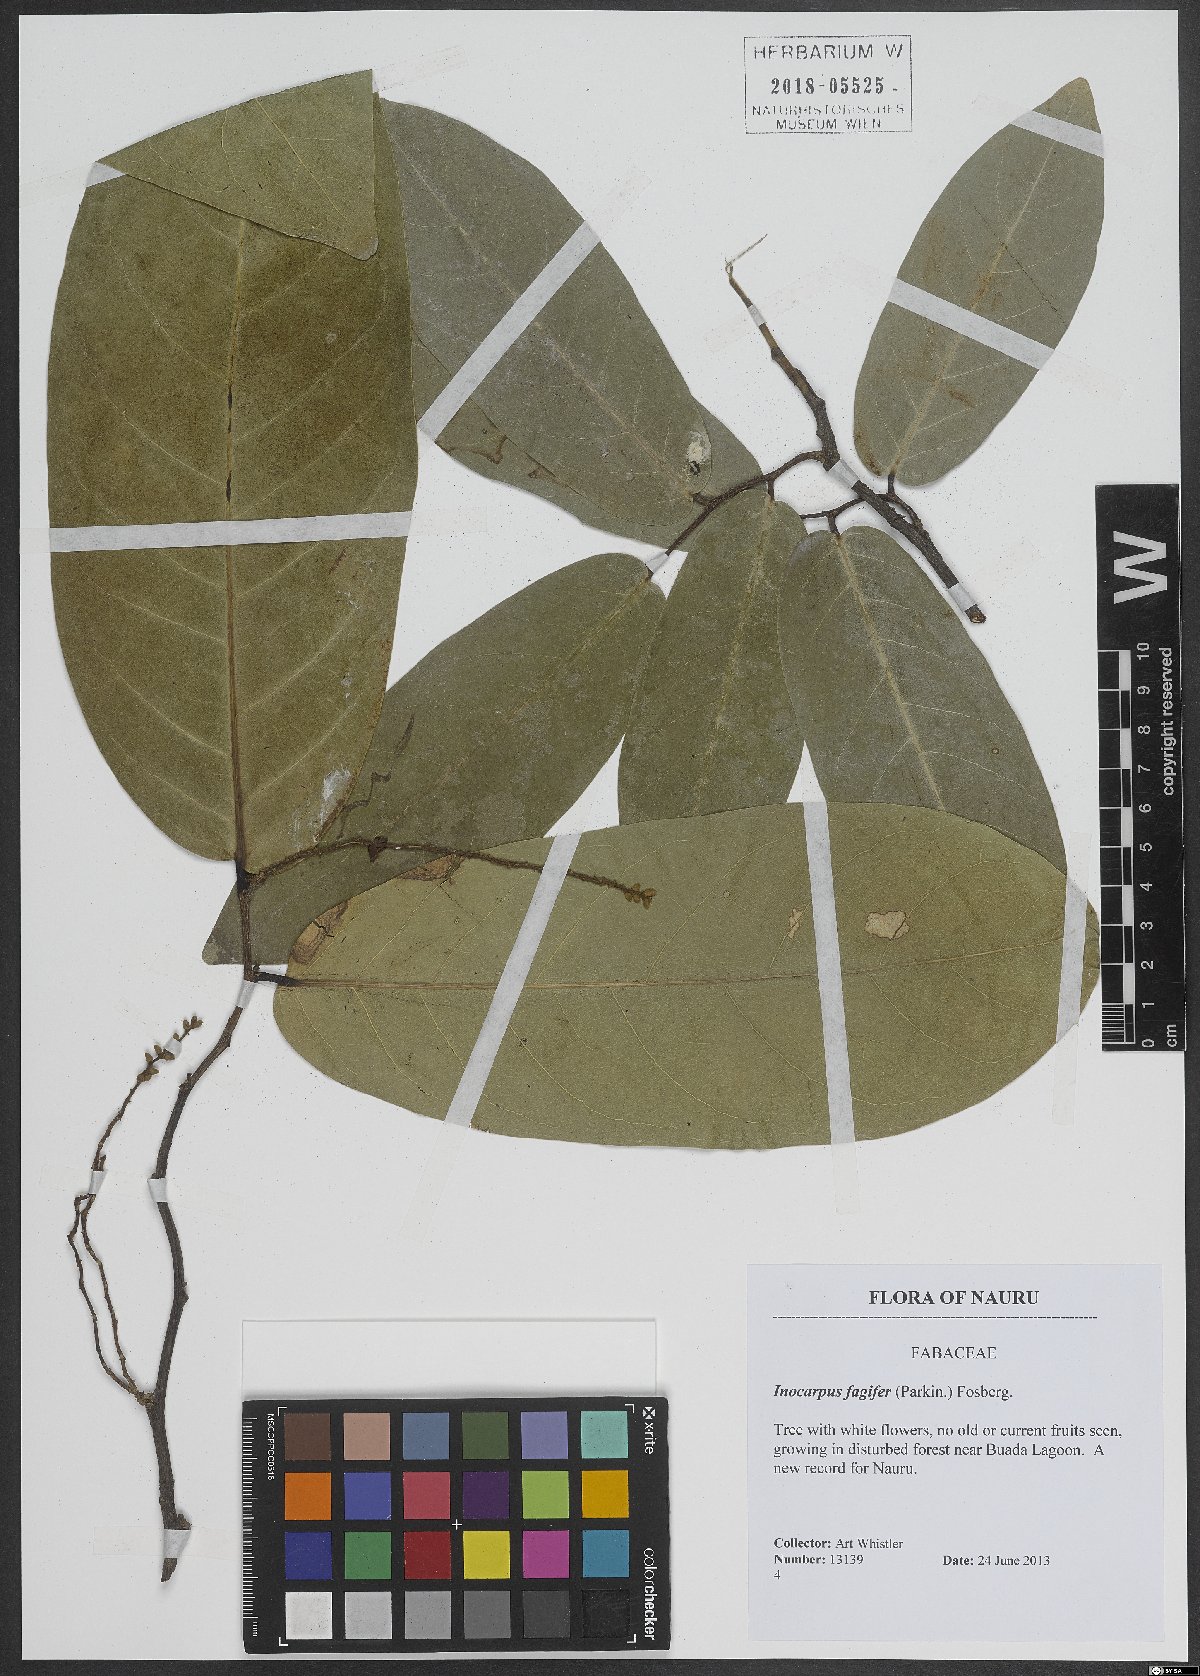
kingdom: Plantae
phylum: Tracheophyta
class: Magnoliopsida
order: Fabales
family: Fabaceae
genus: Inocarpus
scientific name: Inocarpus fagifer
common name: Polynesian chestnut
